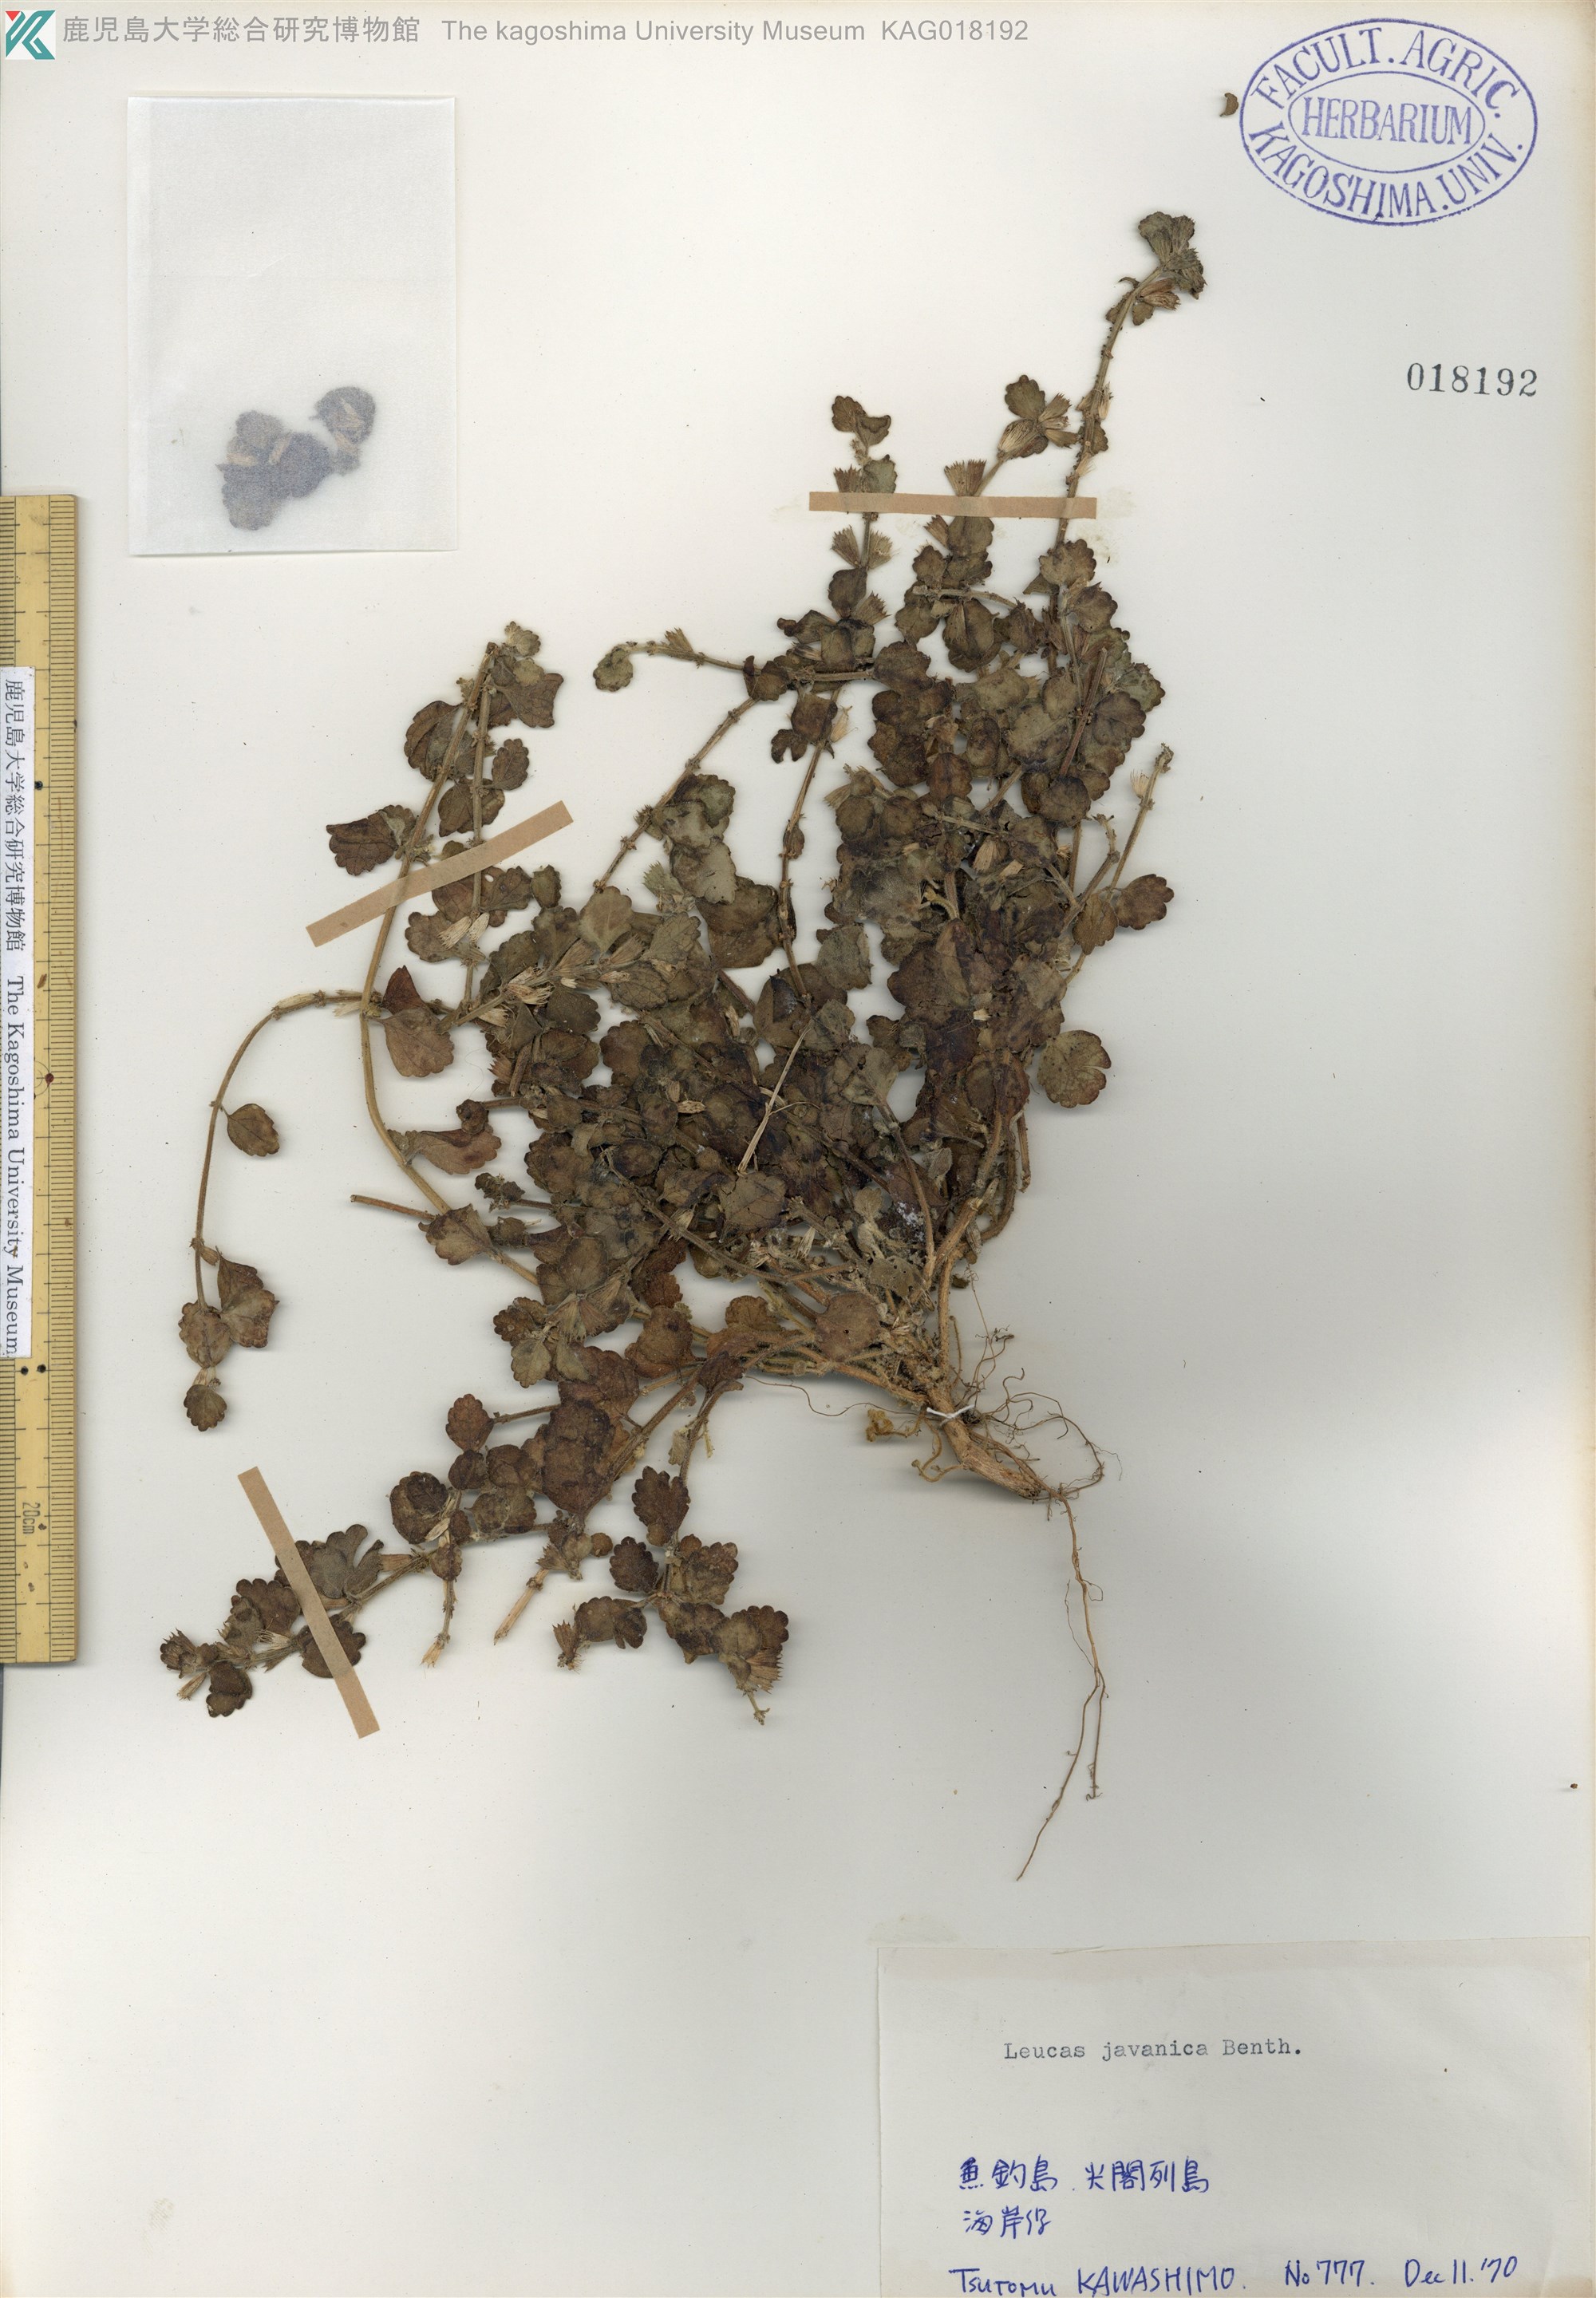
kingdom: Plantae
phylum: Tracheophyta
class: Magnoliopsida
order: Lamiales
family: Lamiaceae
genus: Leucas
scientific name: Leucas chinensis
